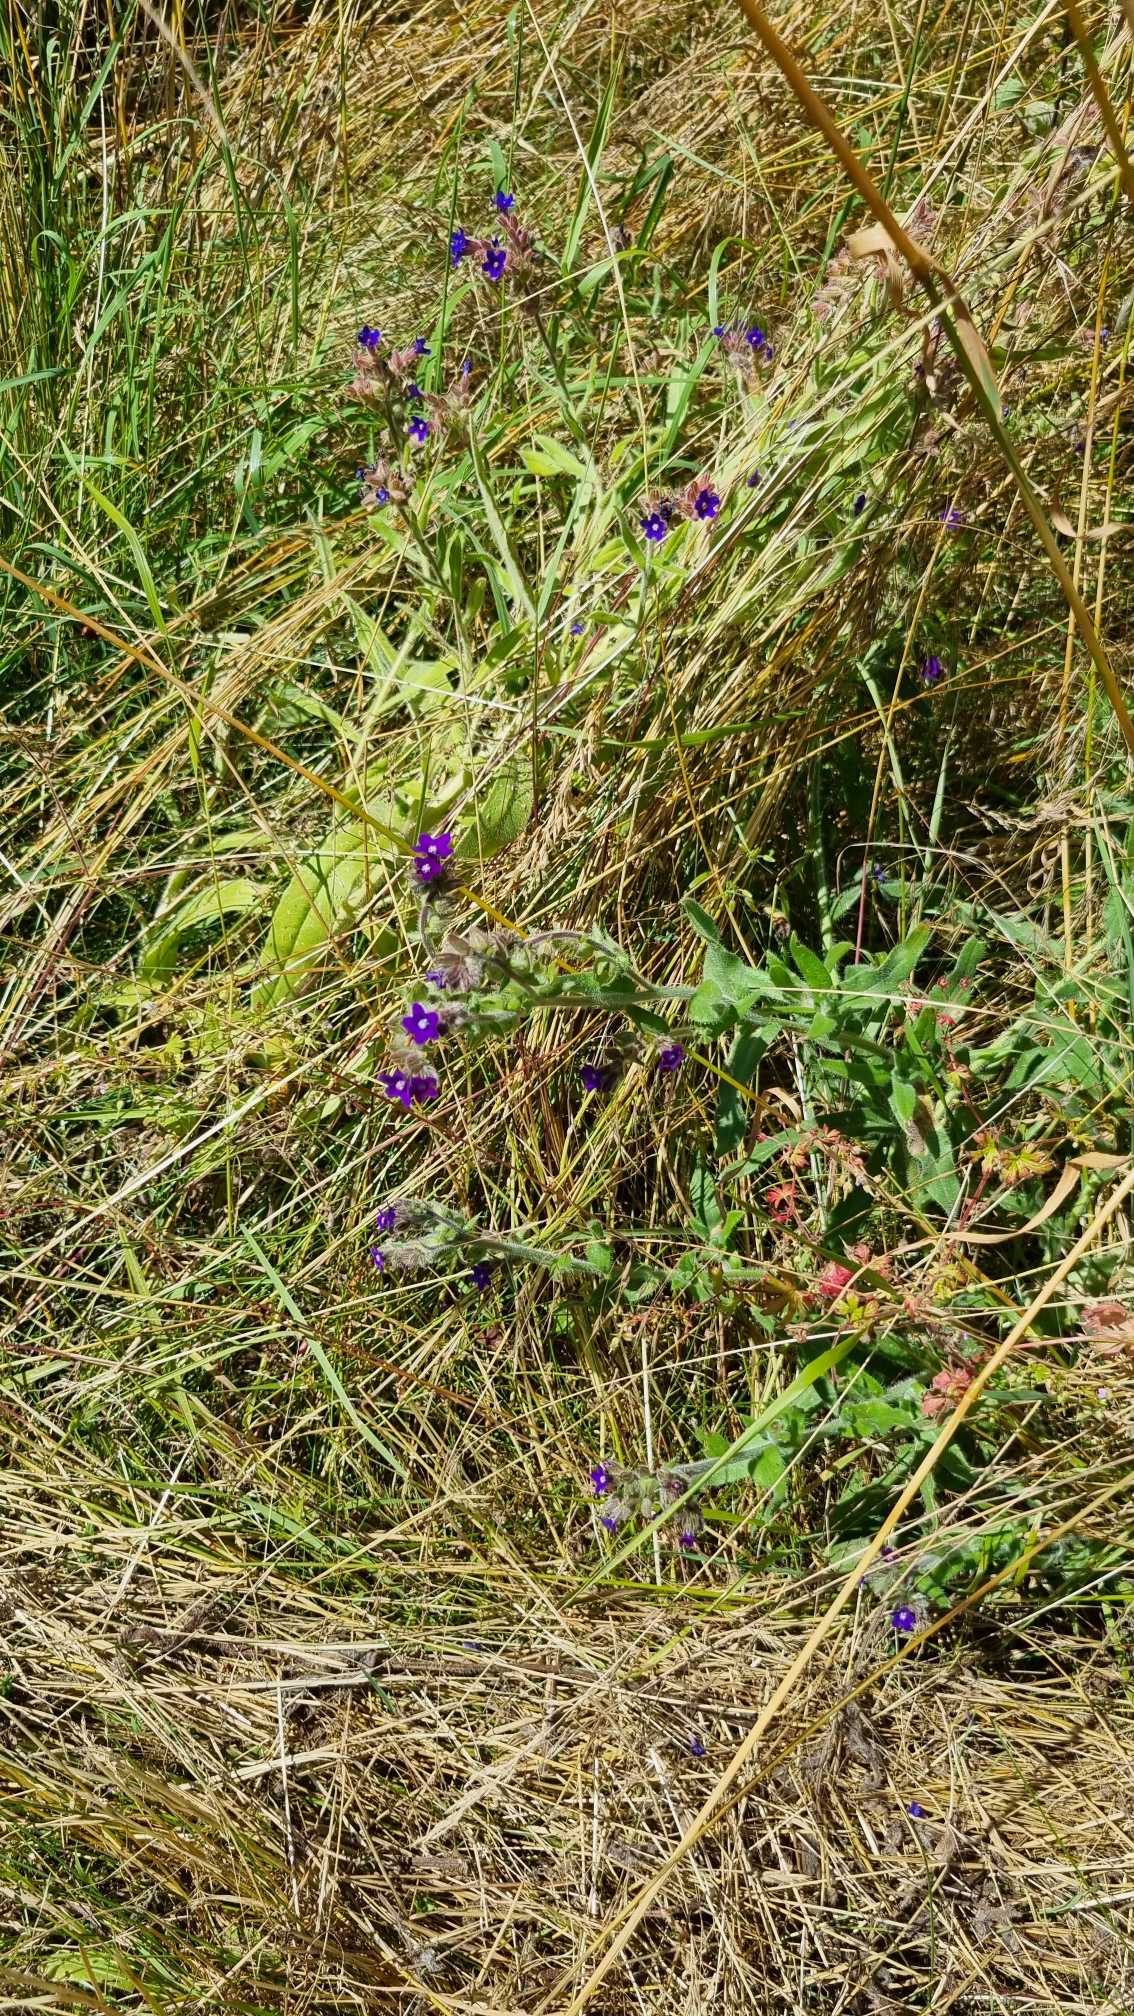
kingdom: Plantae
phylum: Tracheophyta
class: Magnoliopsida
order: Boraginales
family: Boraginaceae
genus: Anchusa
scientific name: Anchusa officinalis
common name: Læge-oksetunge
